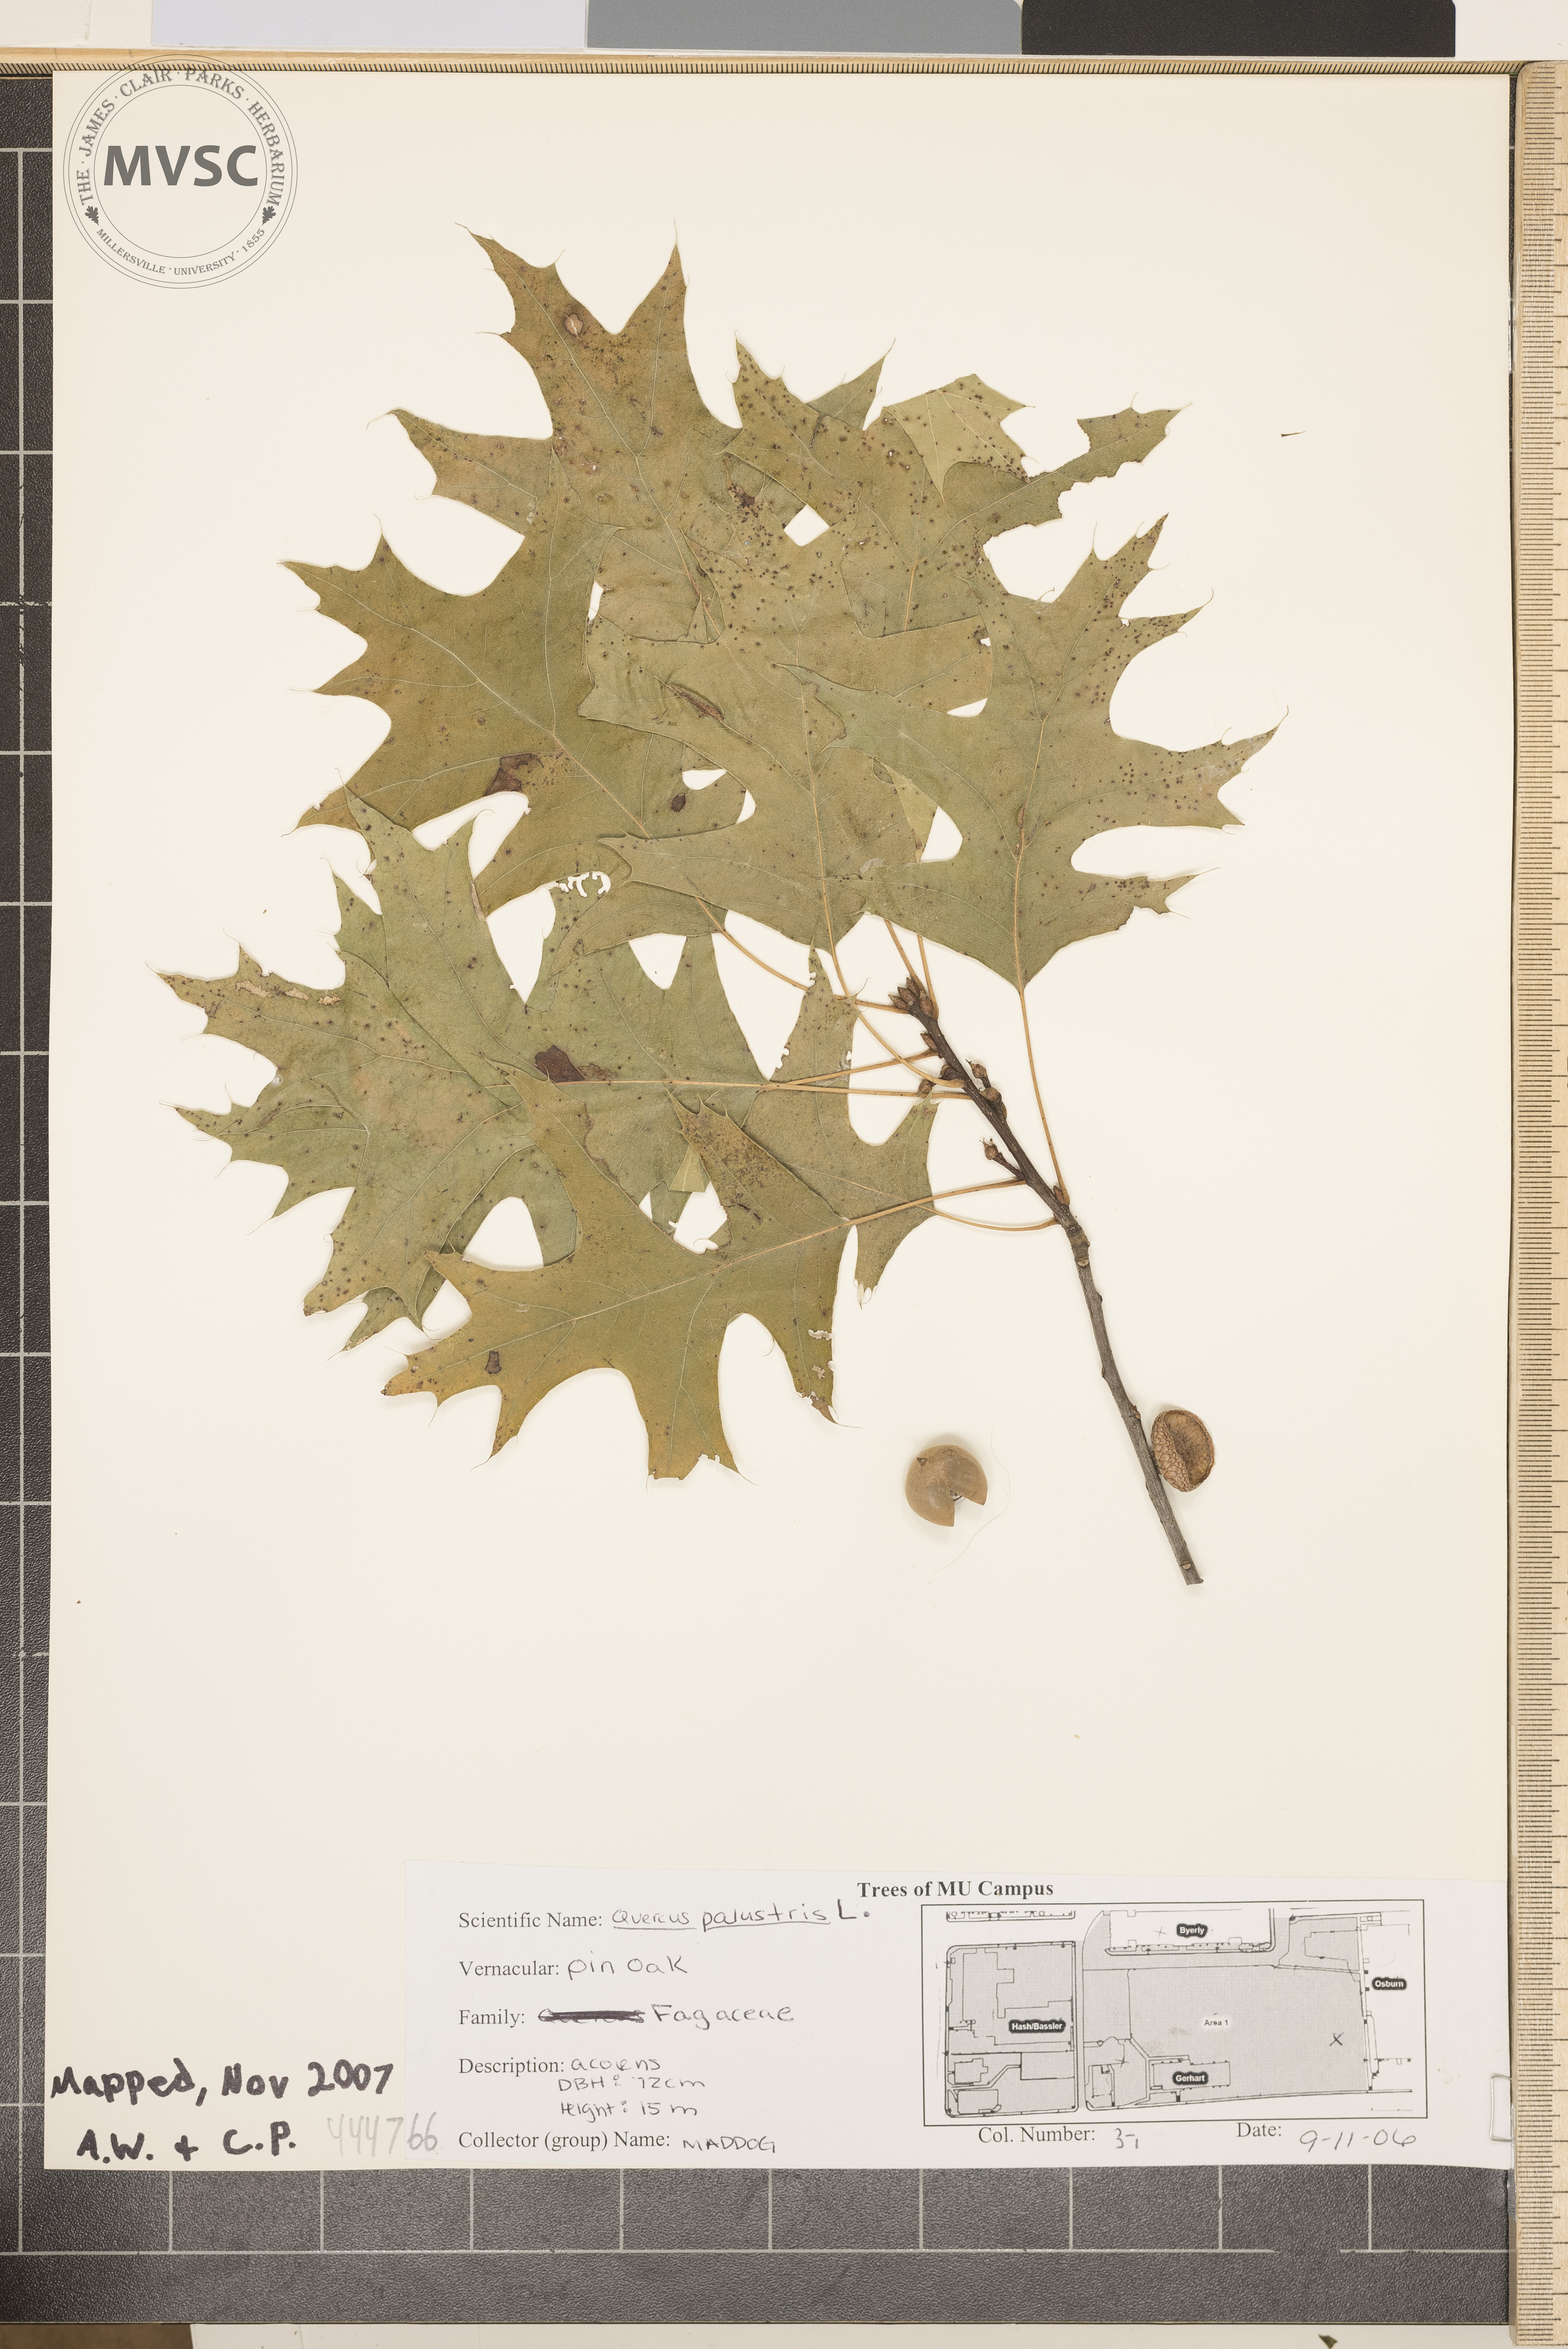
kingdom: Plantae
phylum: Tracheophyta
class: Magnoliopsida
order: Fagales
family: Fagaceae
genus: Quercus
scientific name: Quercus palustris
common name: Pin oak
